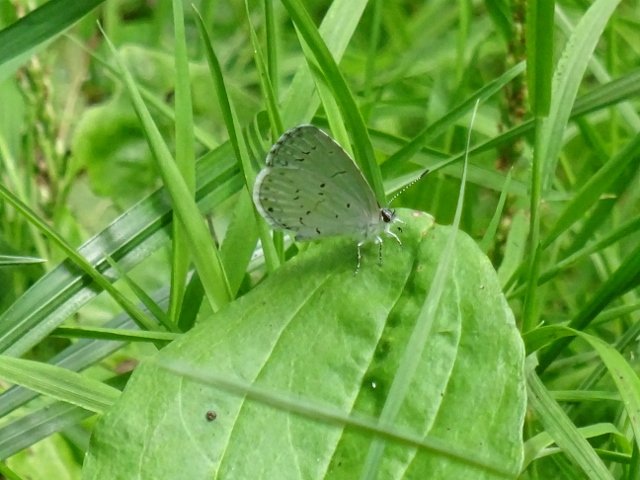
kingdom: Animalia
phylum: Arthropoda
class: Insecta
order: Lepidoptera
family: Lycaenidae
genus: Celastrina
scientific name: Celastrina
